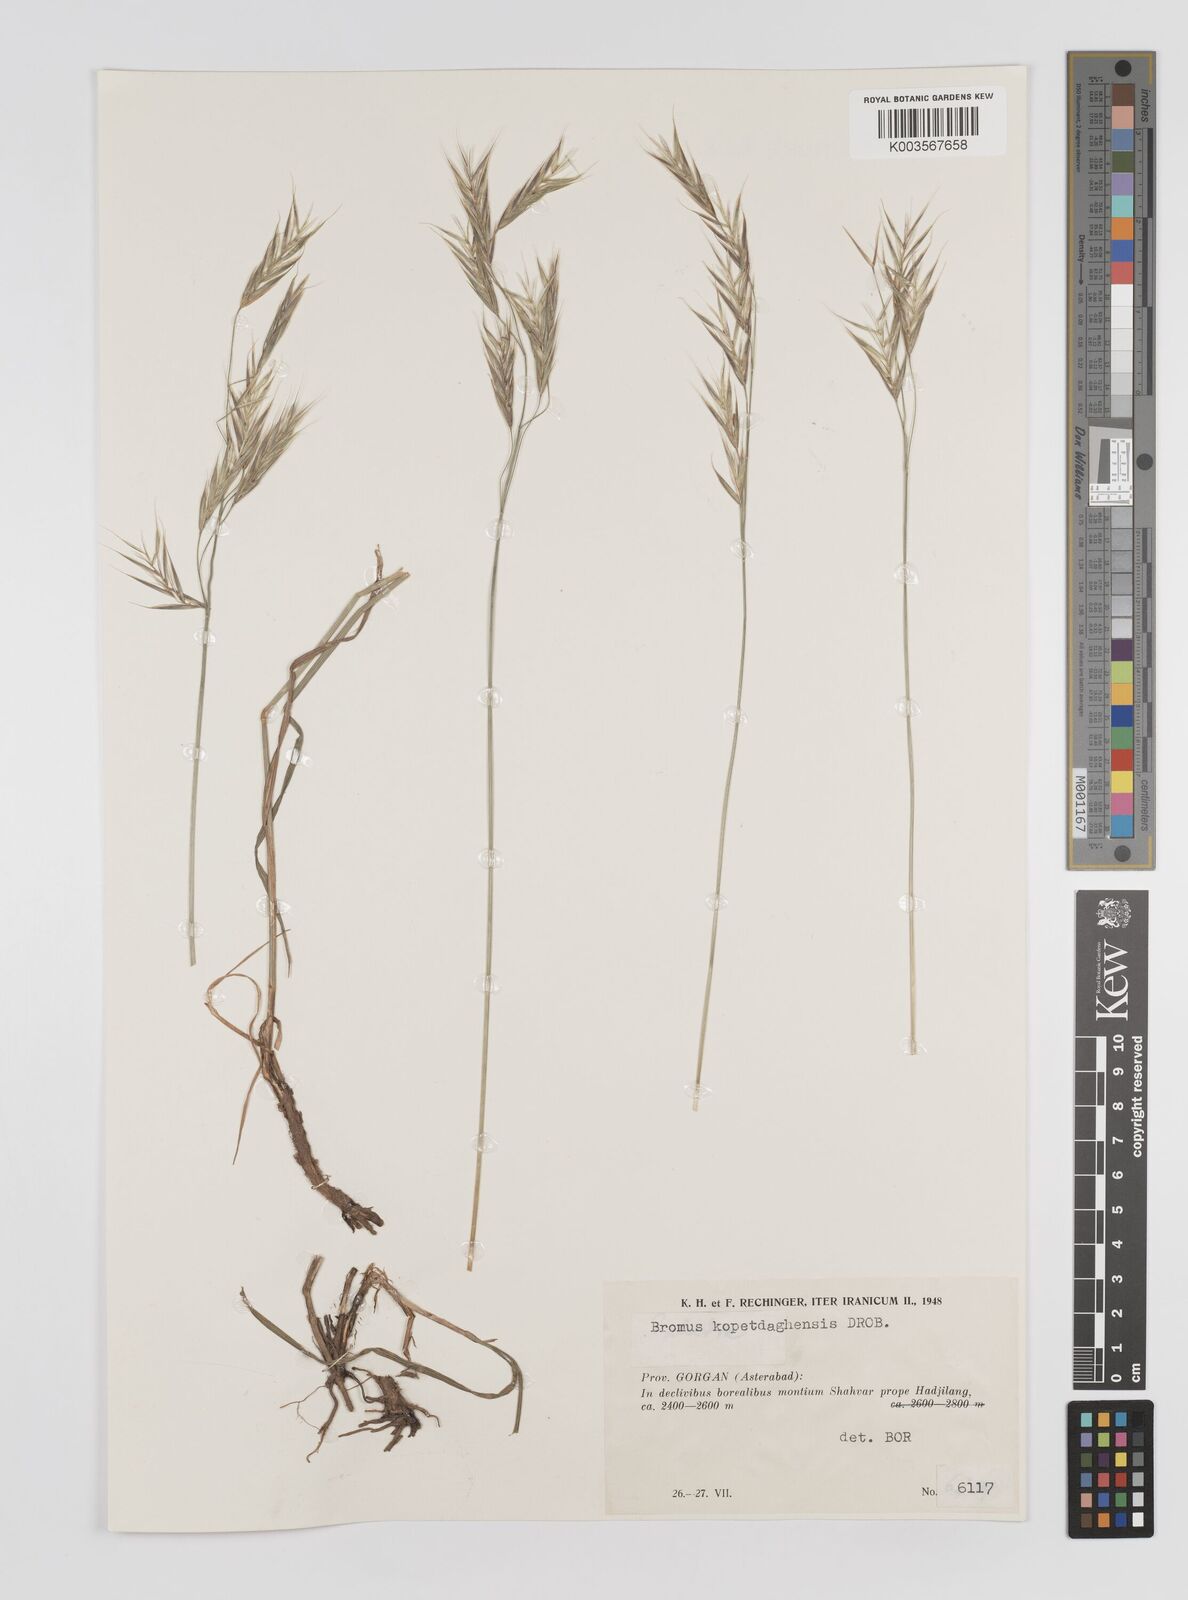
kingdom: Plantae
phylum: Tracheophyta
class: Liliopsida
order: Poales
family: Poaceae
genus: Bromus
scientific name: Bromus kopetdagensis
